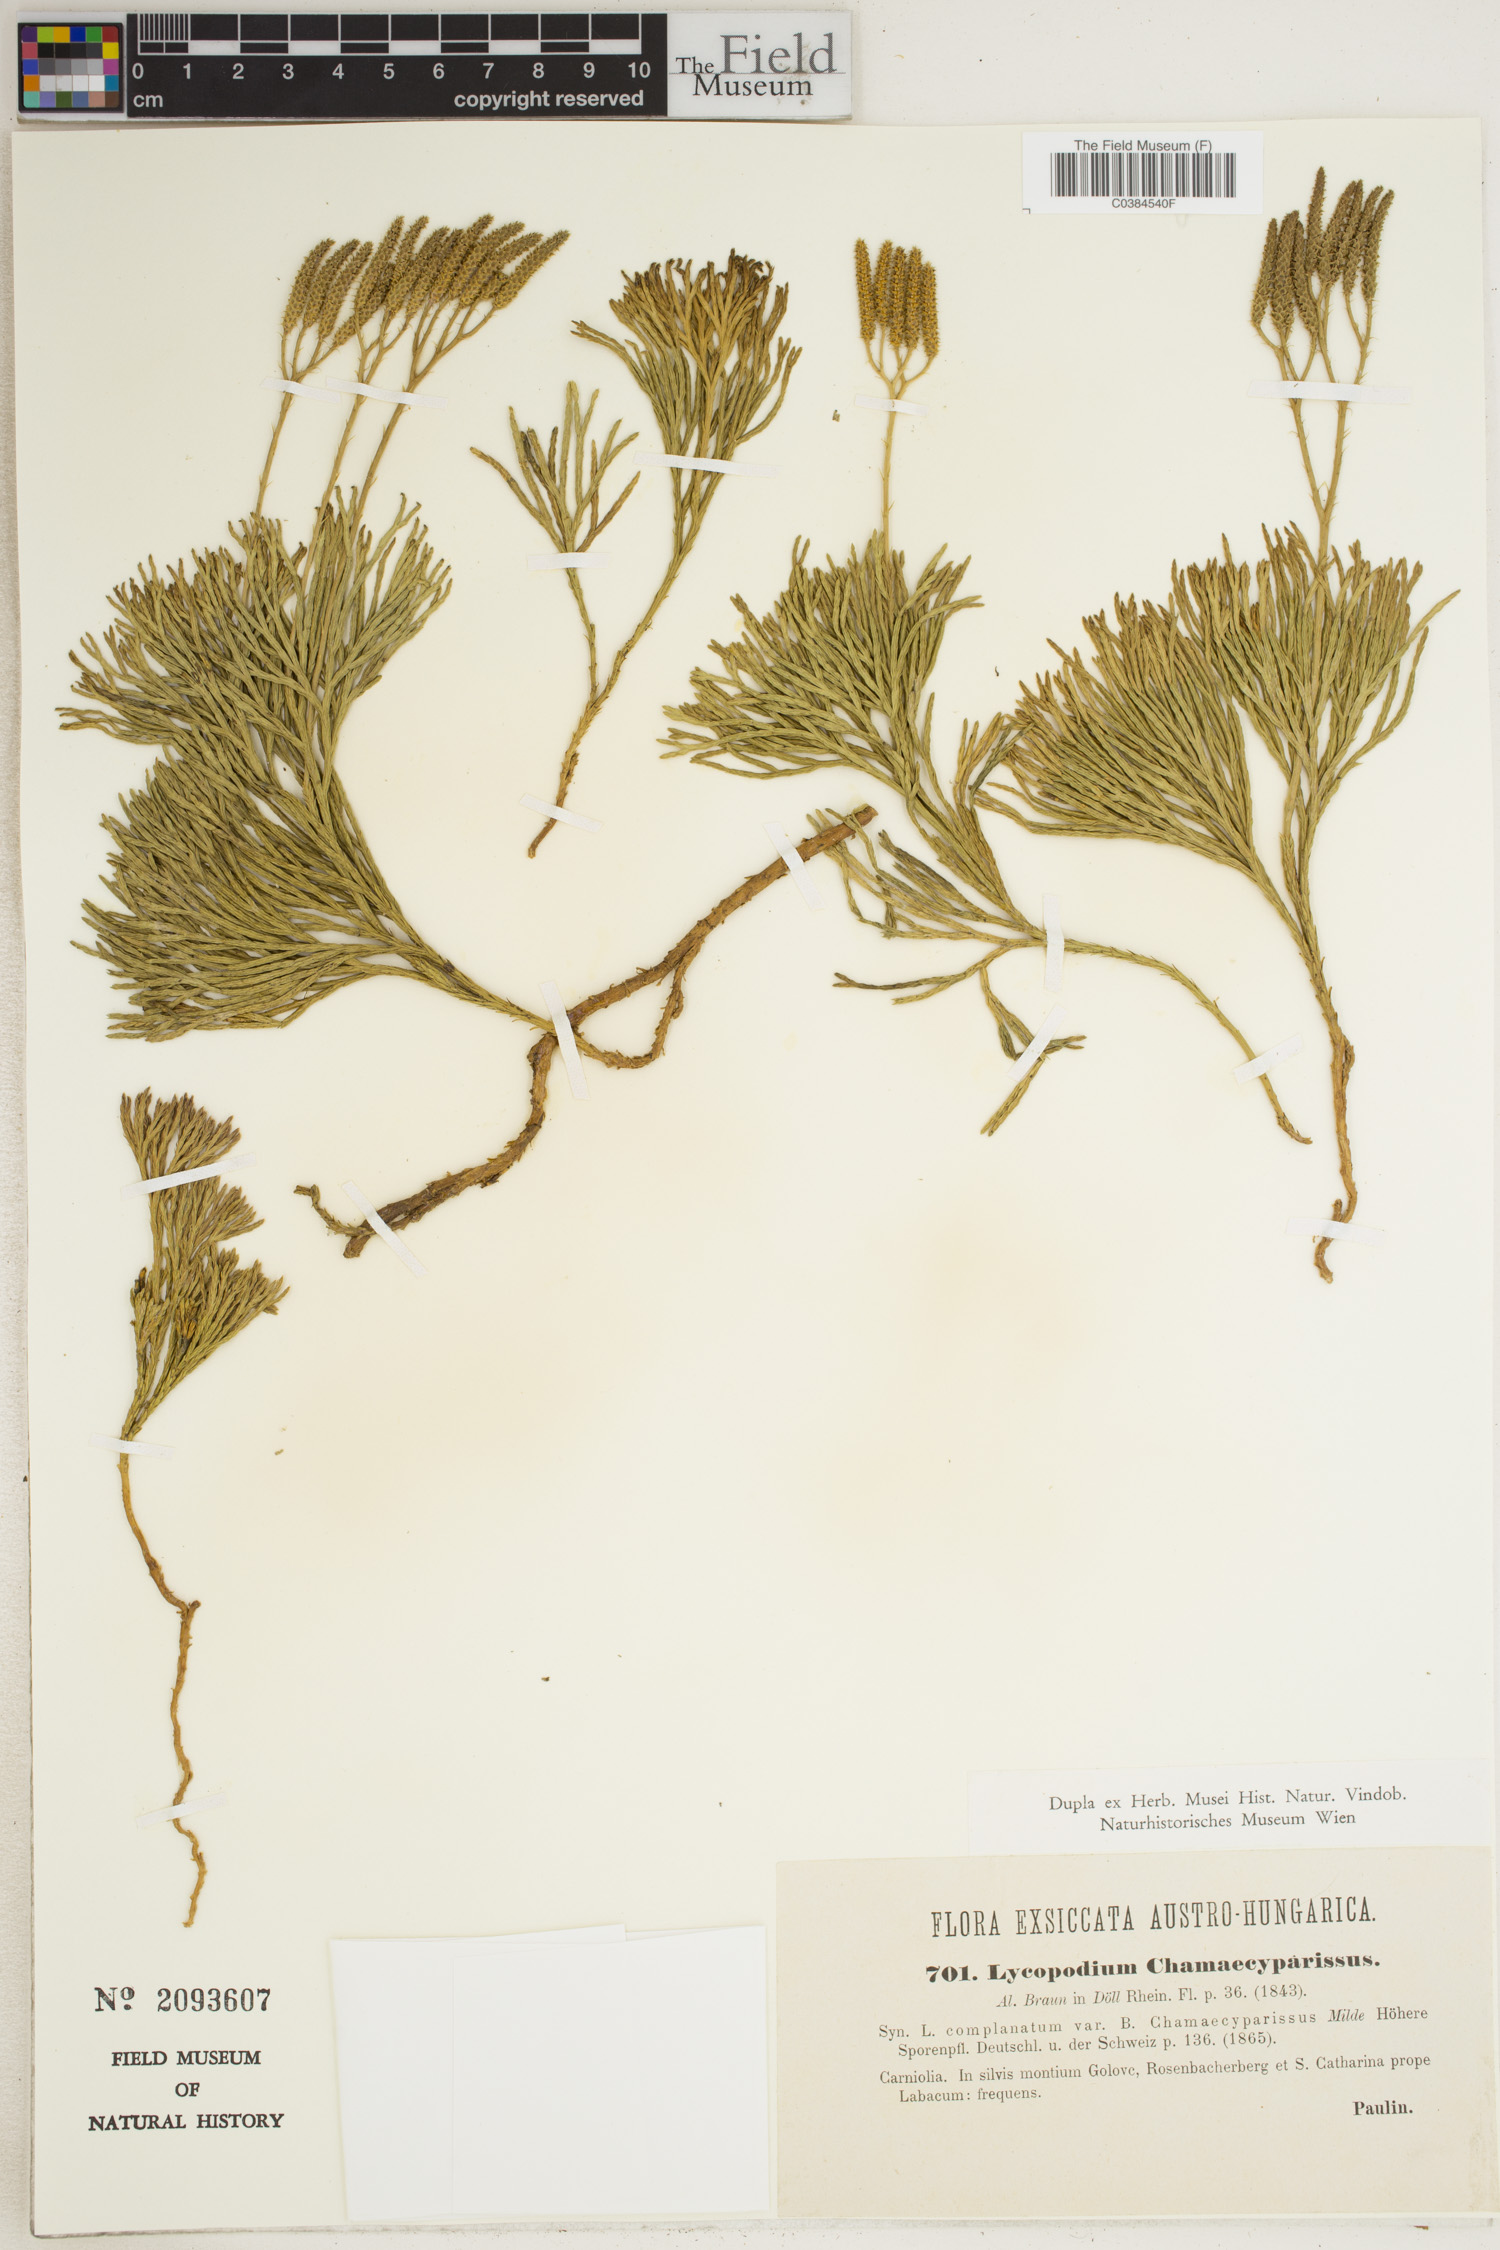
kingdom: Plantae
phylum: Tracheophyta
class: Lycopodiopsida
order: Lycopodiales
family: Lycopodiaceae
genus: Diphasiastrum
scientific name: Diphasiastrum tristachyum
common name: Blue ground-cedar
